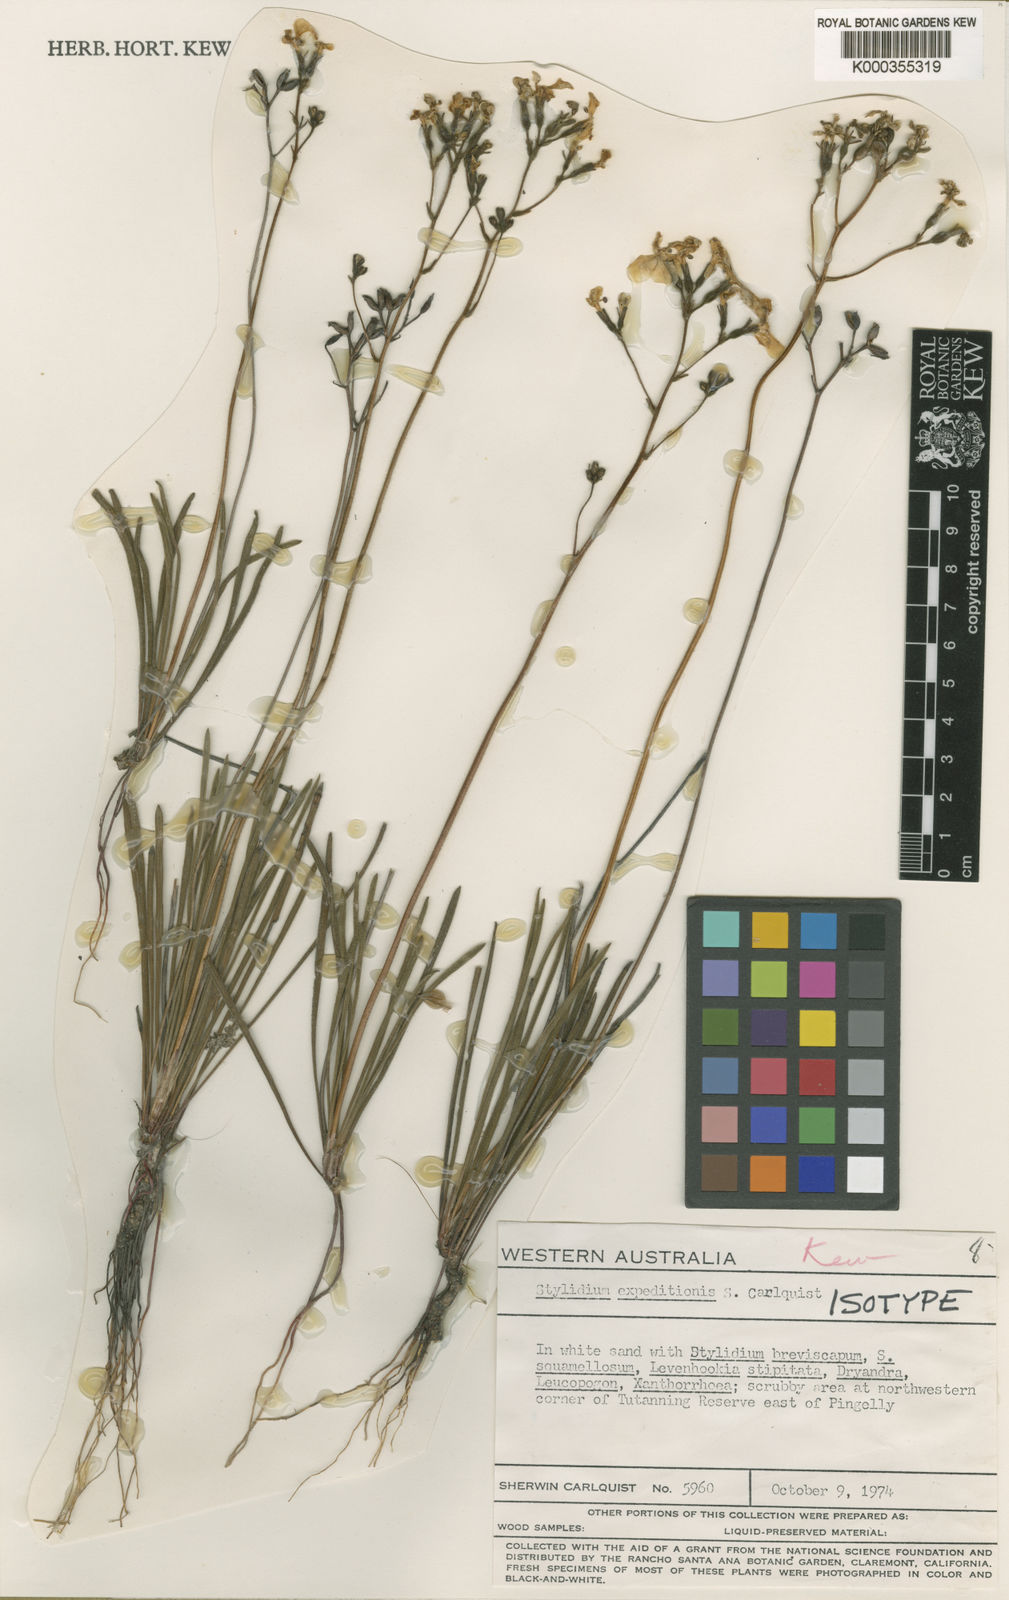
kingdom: Plantae
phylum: Tracheophyta
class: Magnoliopsida
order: Asterales
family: Stylidiaceae
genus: Stylidium
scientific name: Stylidium expeditionis
